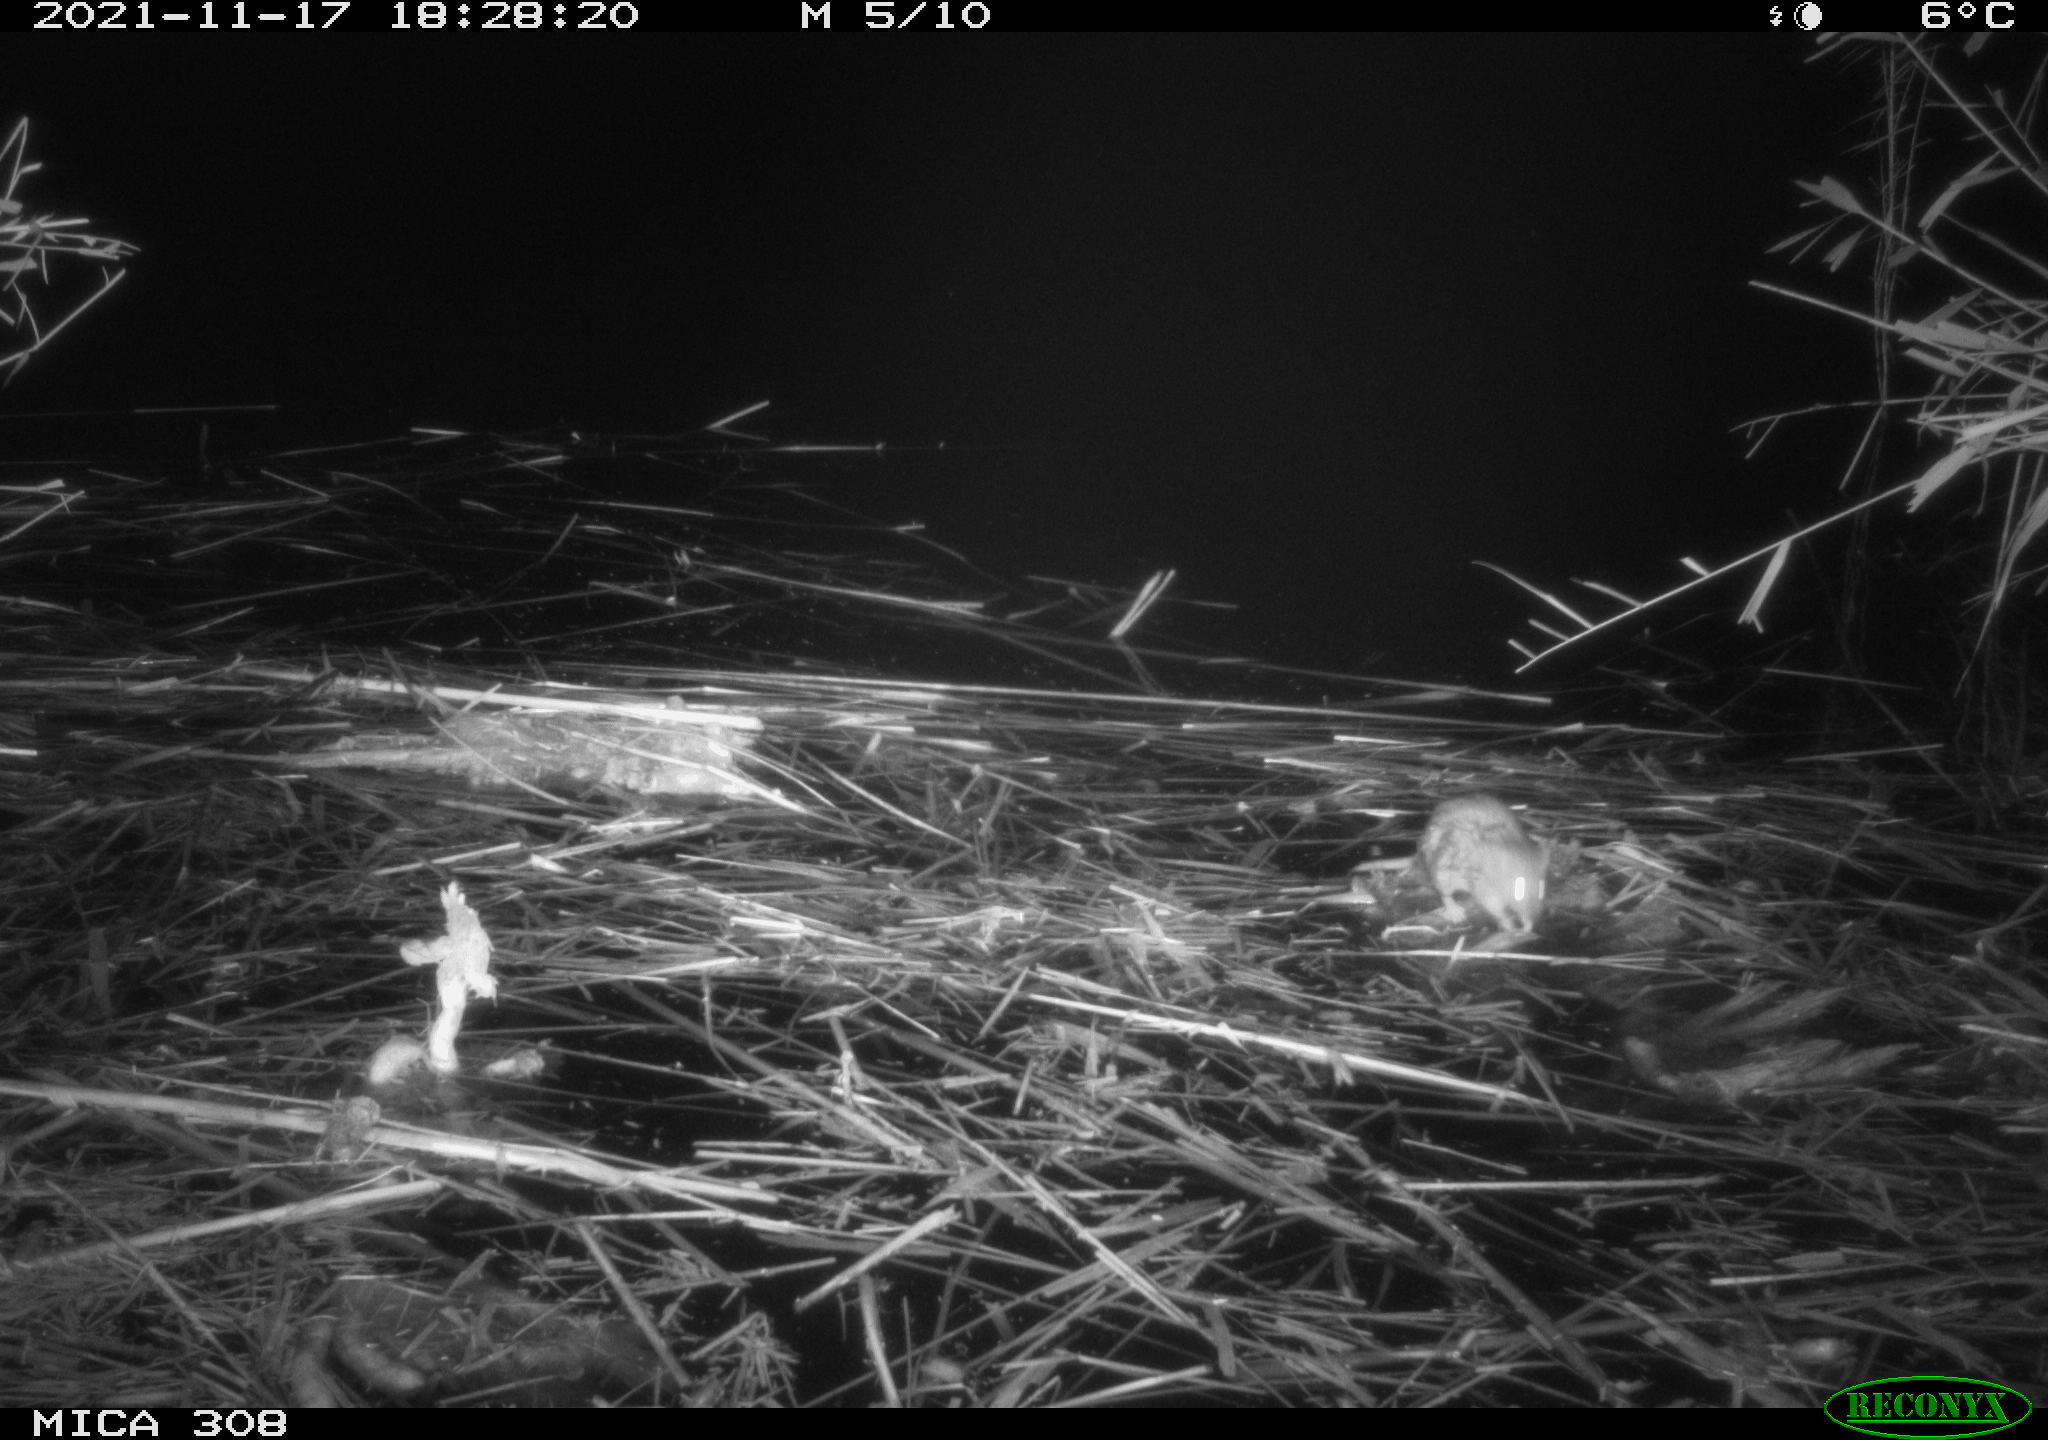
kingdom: Animalia
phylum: Chordata
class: Mammalia
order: Rodentia
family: Muridae
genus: Rattus
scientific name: Rattus norvegicus
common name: Brown rat
